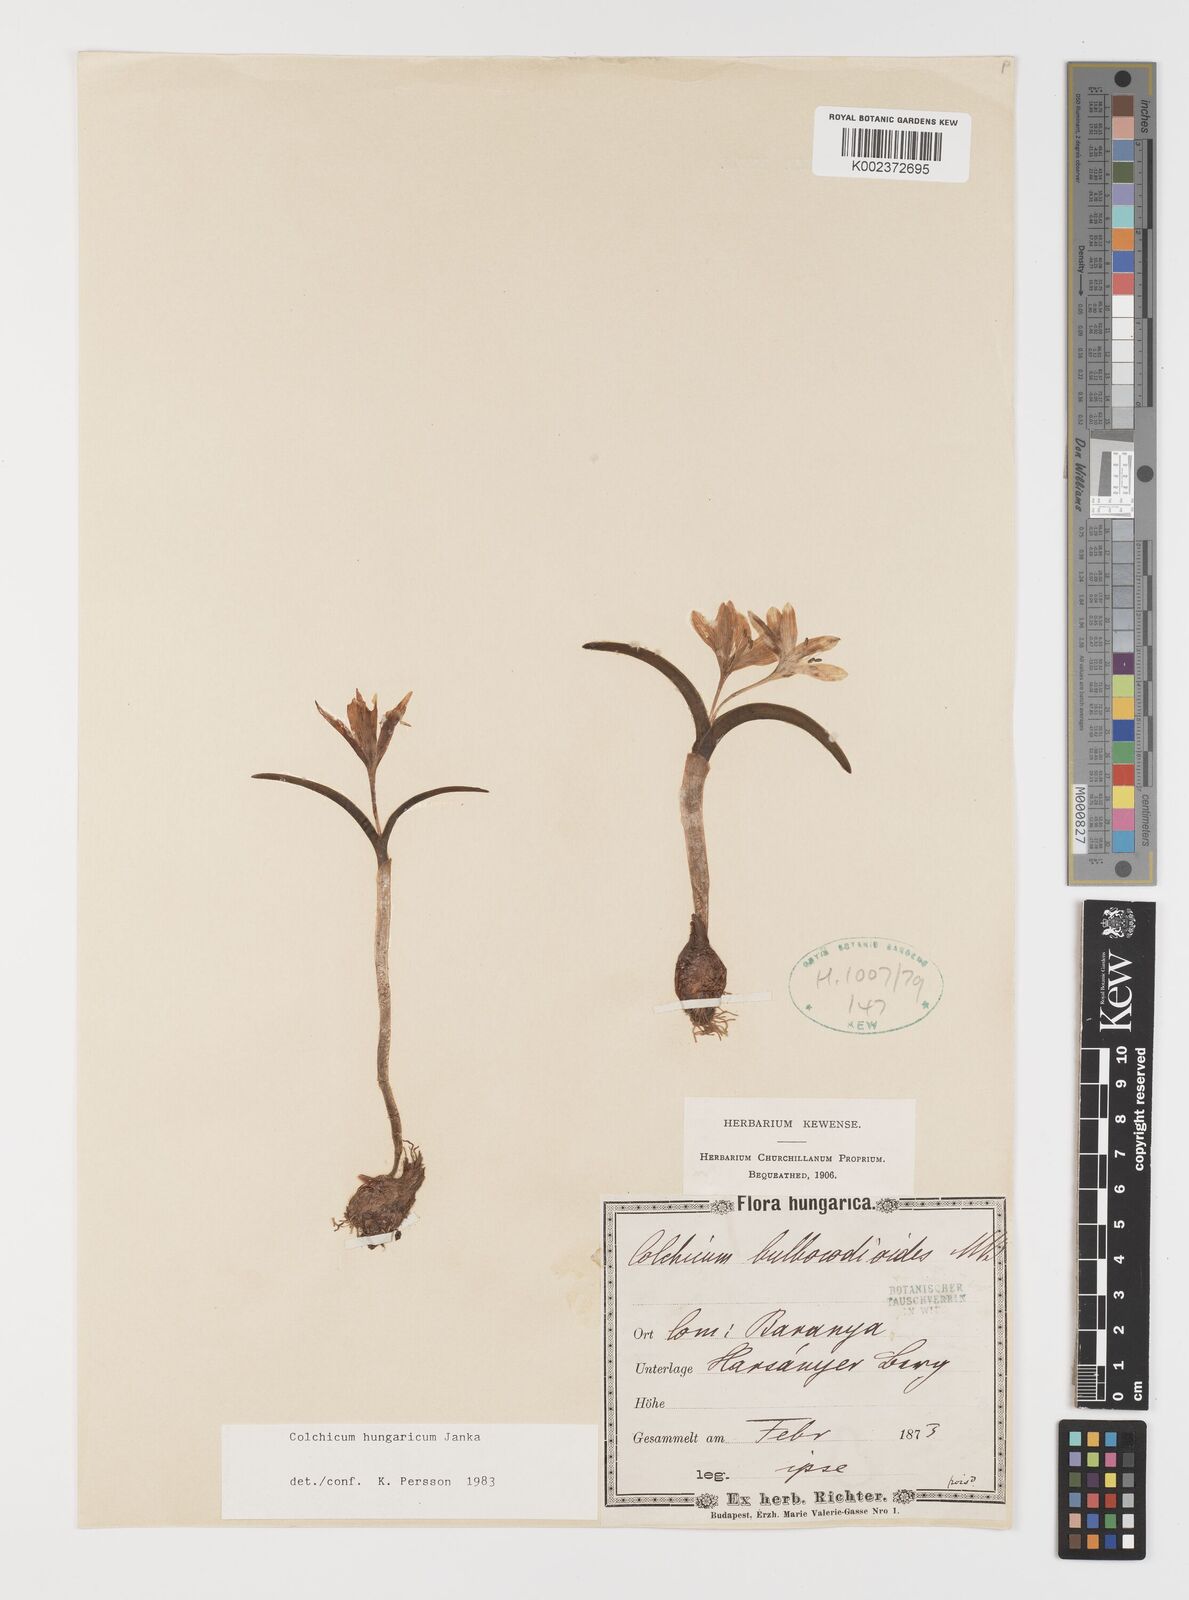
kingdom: Plantae
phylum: Tracheophyta
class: Liliopsida
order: Liliales
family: Colchicaceae
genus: Colchicum
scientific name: Colchicum hungaricum
